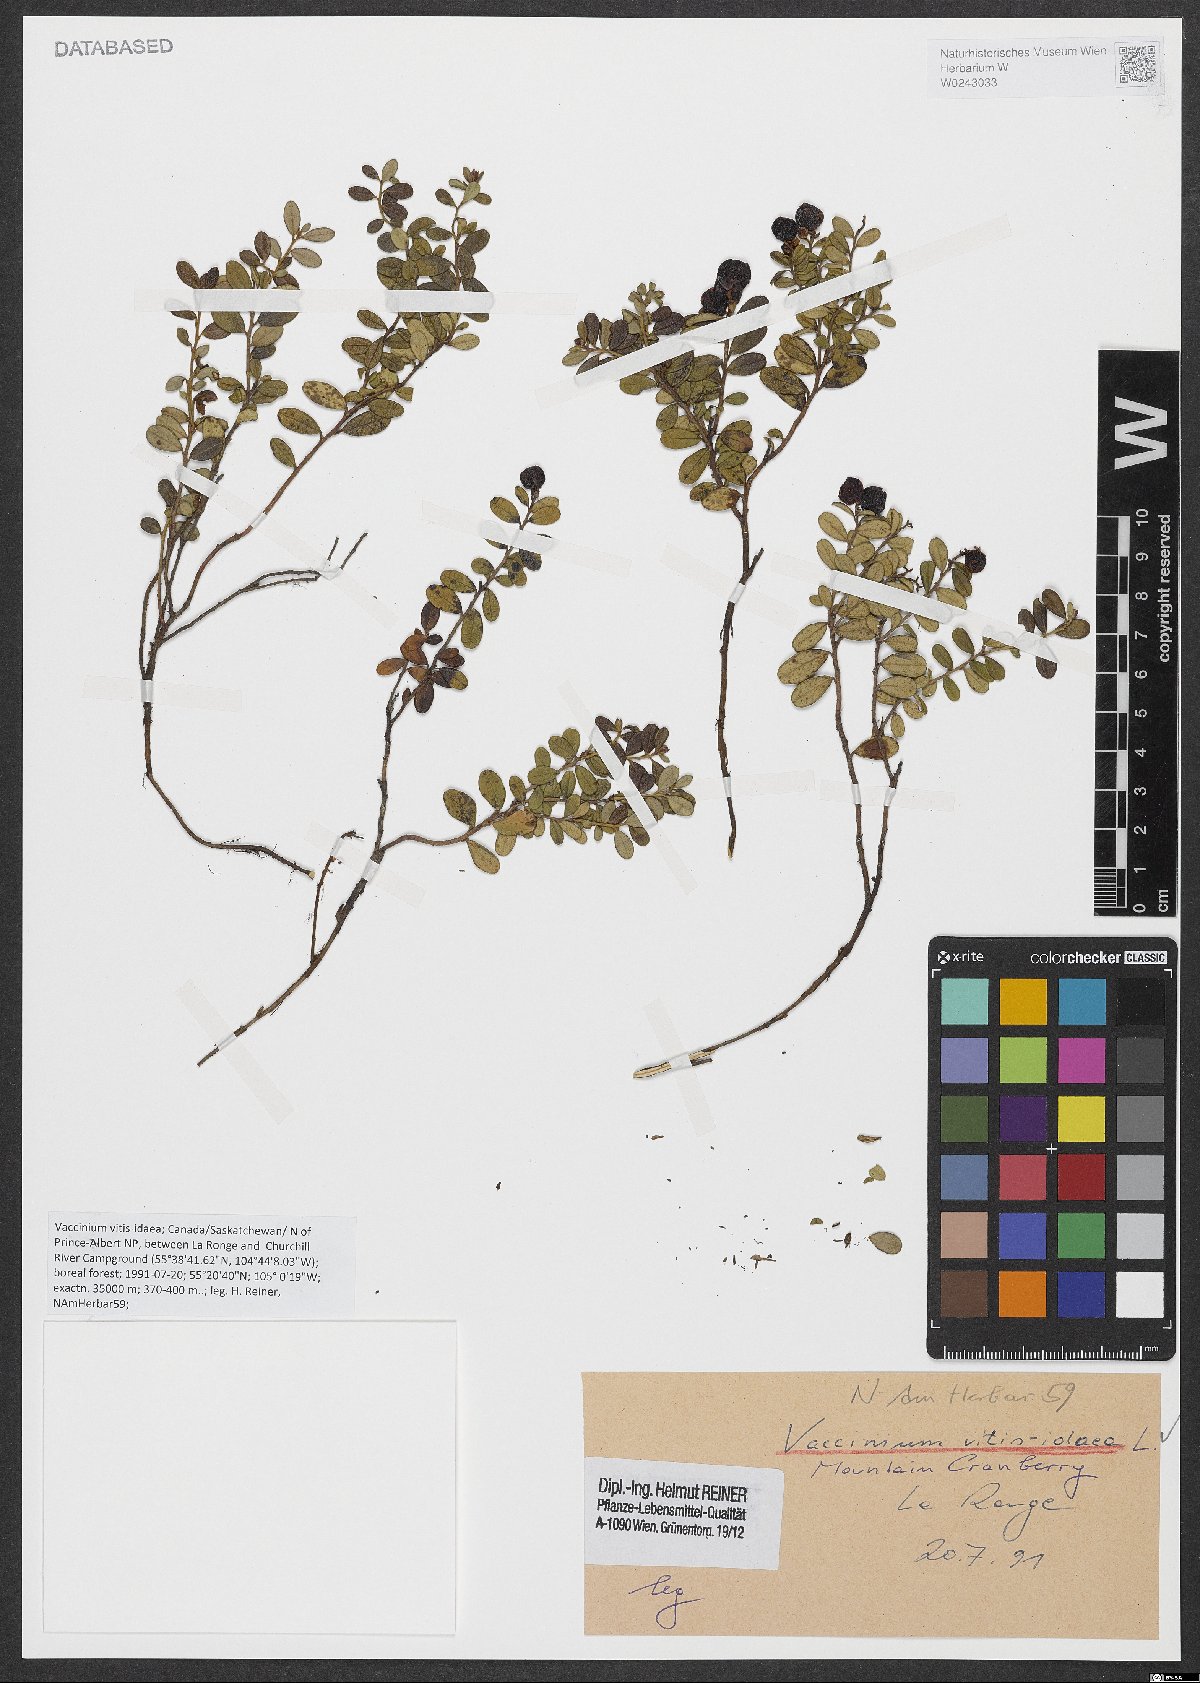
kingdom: Plantae
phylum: Tracheophyta
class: Magnoliopsida
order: Ericales
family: Ericaceae
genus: Vaccinium
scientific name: Vaccinium vitis-idaea
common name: Cowberry
